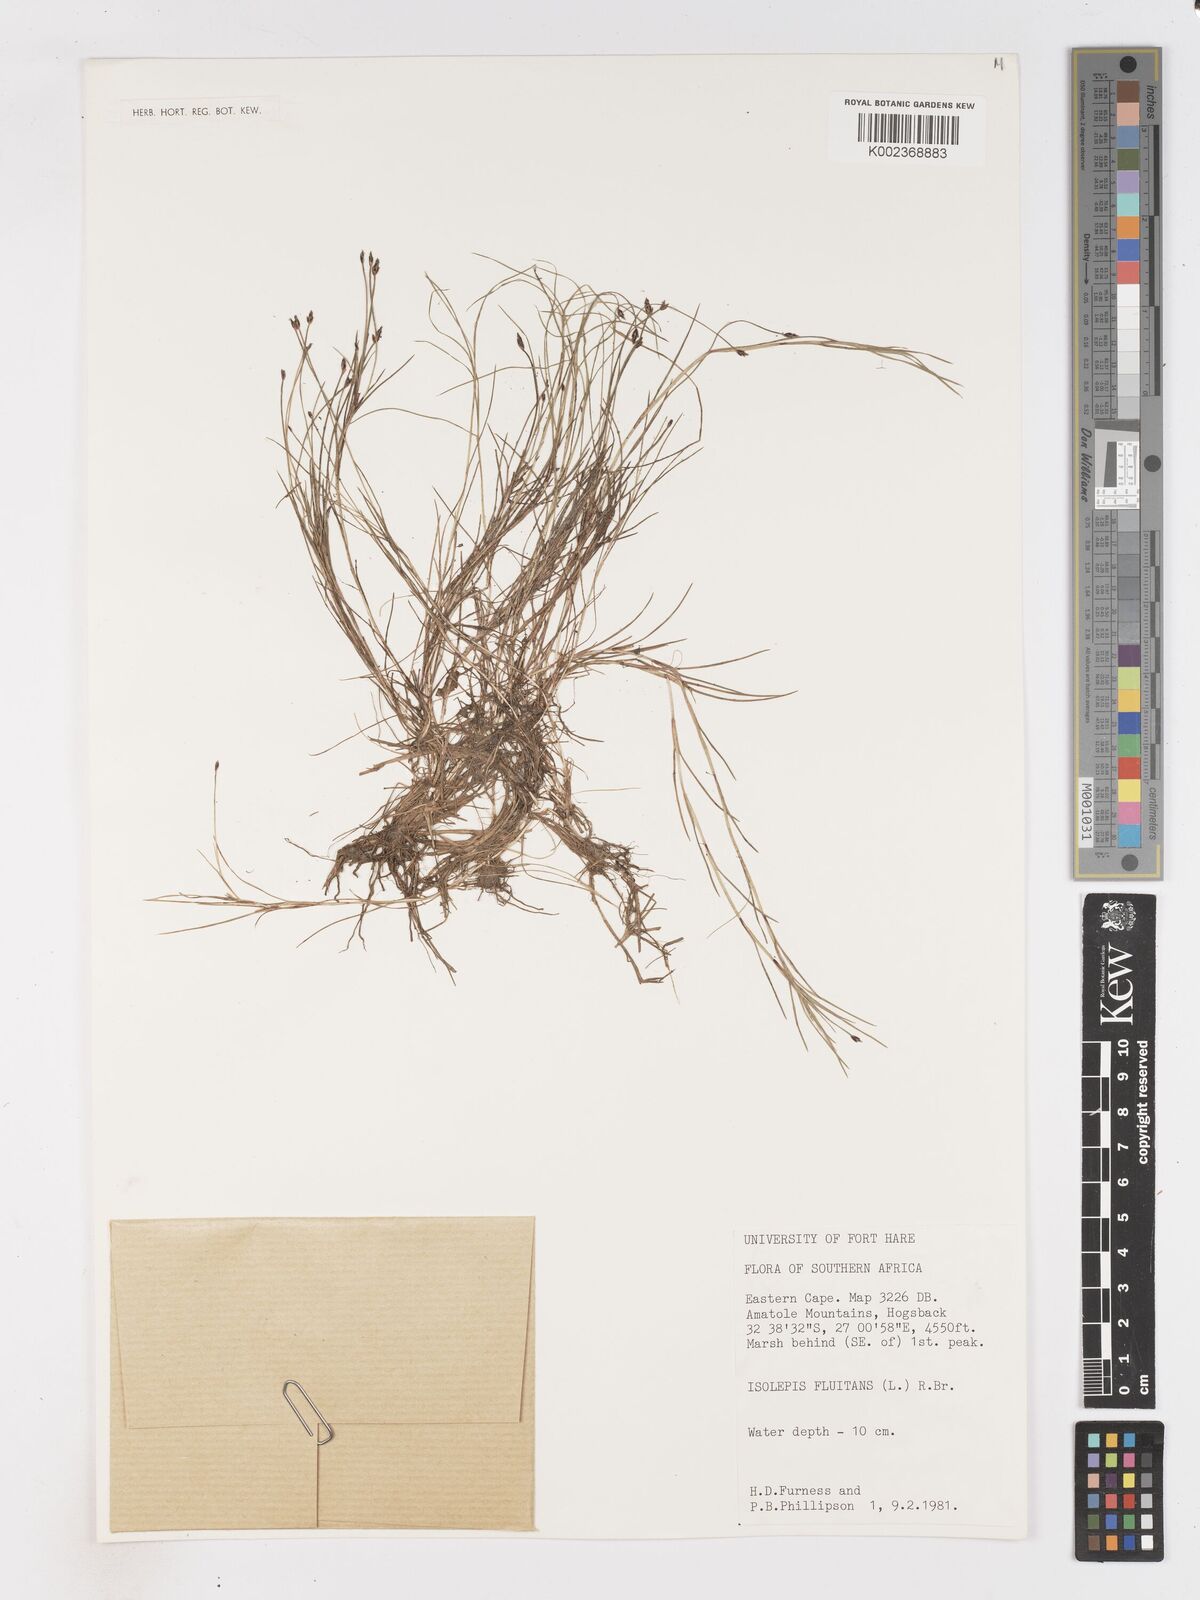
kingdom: Plantae
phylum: Tracheophyta
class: Liliopsida
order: Poales
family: Cyperaceae
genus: Isolepis
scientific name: Isolepis
